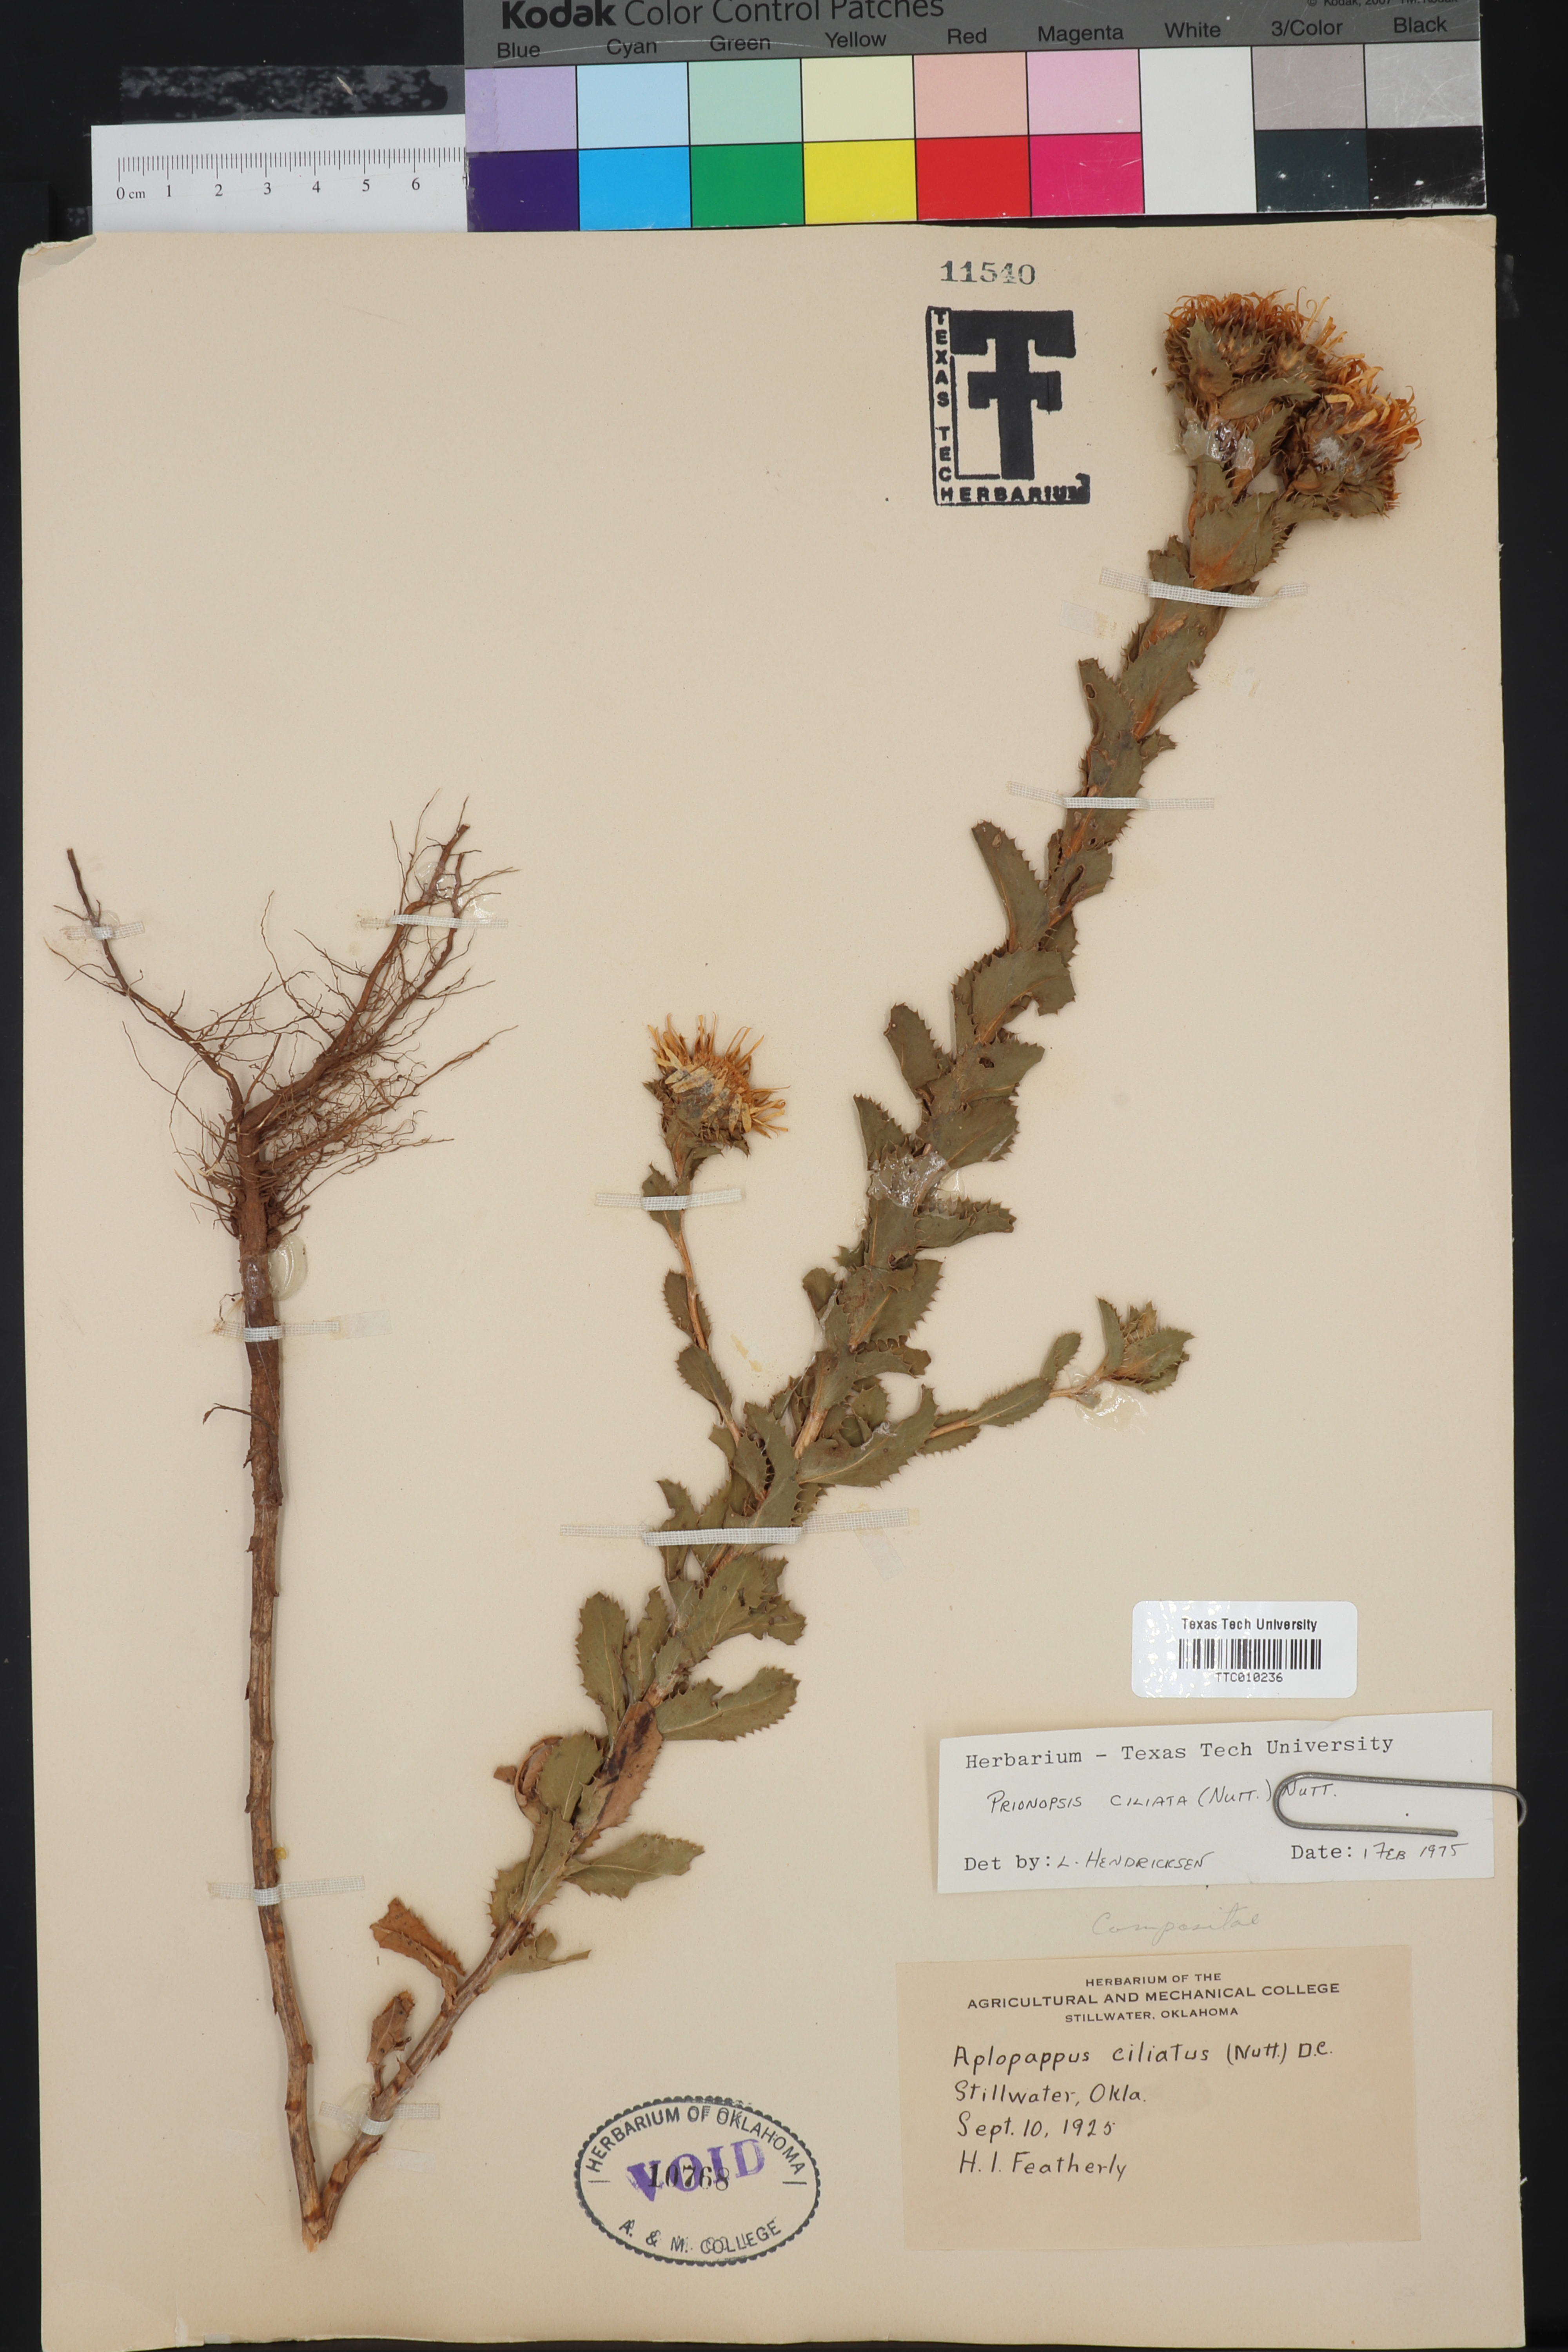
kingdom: Plantae
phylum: Tracheophyta
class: Magnoliopsida
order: Asterales
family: Asteraceae
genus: Grindelia
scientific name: Grindelia ciliata
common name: Goldenweed
